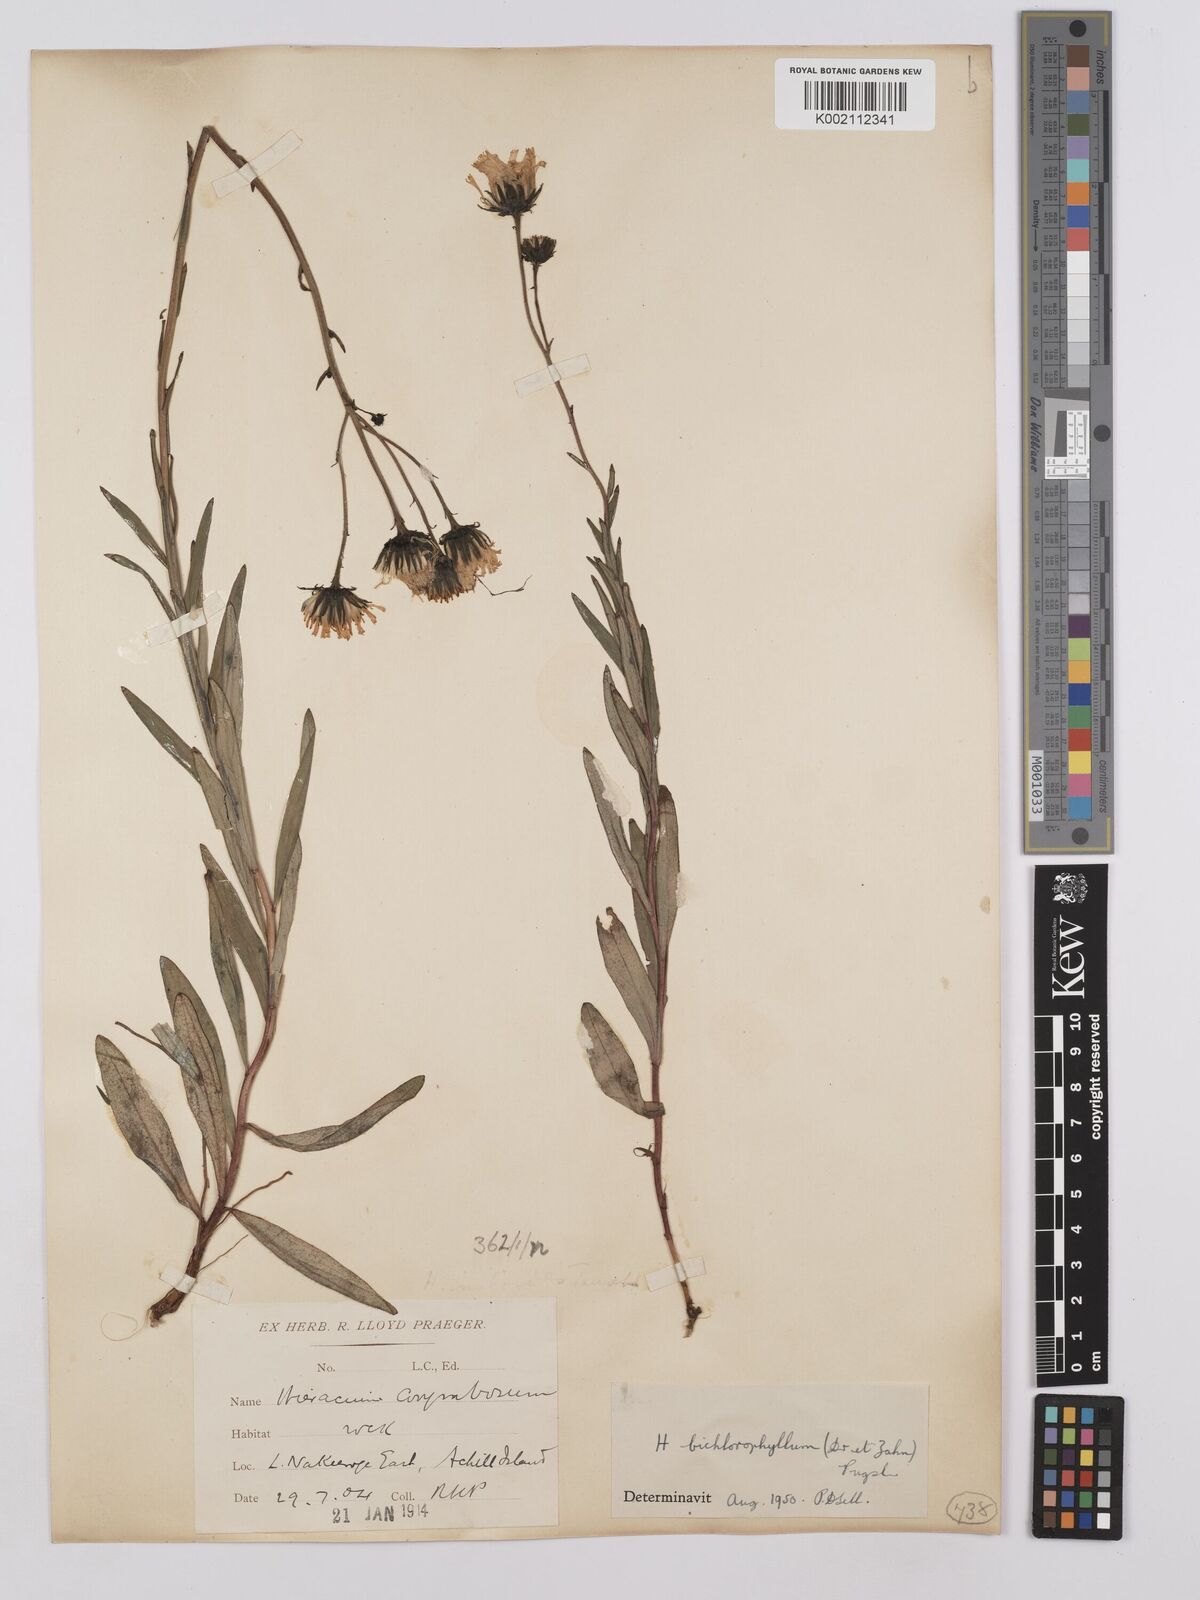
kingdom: Plantae
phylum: Tracheophyta
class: Magnoliopsida
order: Asterales
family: Asteraceae
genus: Hieracium
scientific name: Hieracium umbellatum
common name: Northern hawkweed
